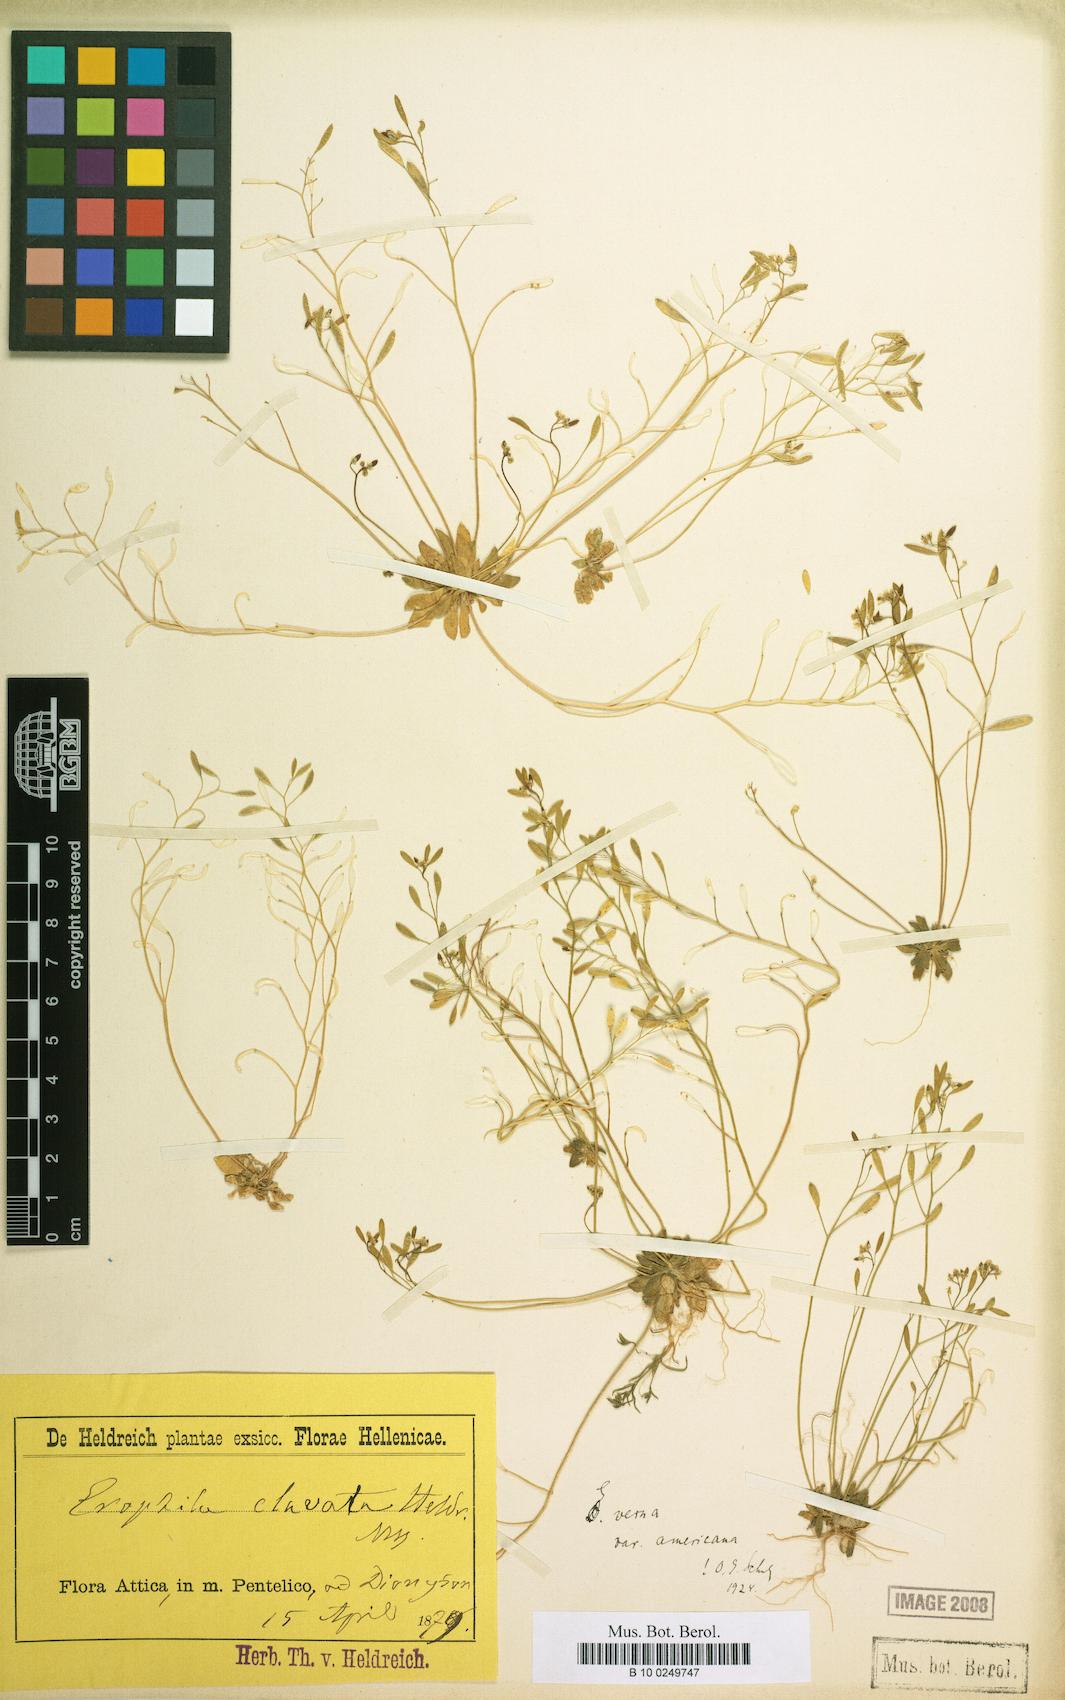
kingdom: Plantae
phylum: Tracheophyta
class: Magnoliopsida
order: Brassicales
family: Brassicaceae
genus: Draba
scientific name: Draba verna
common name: Spring draba
